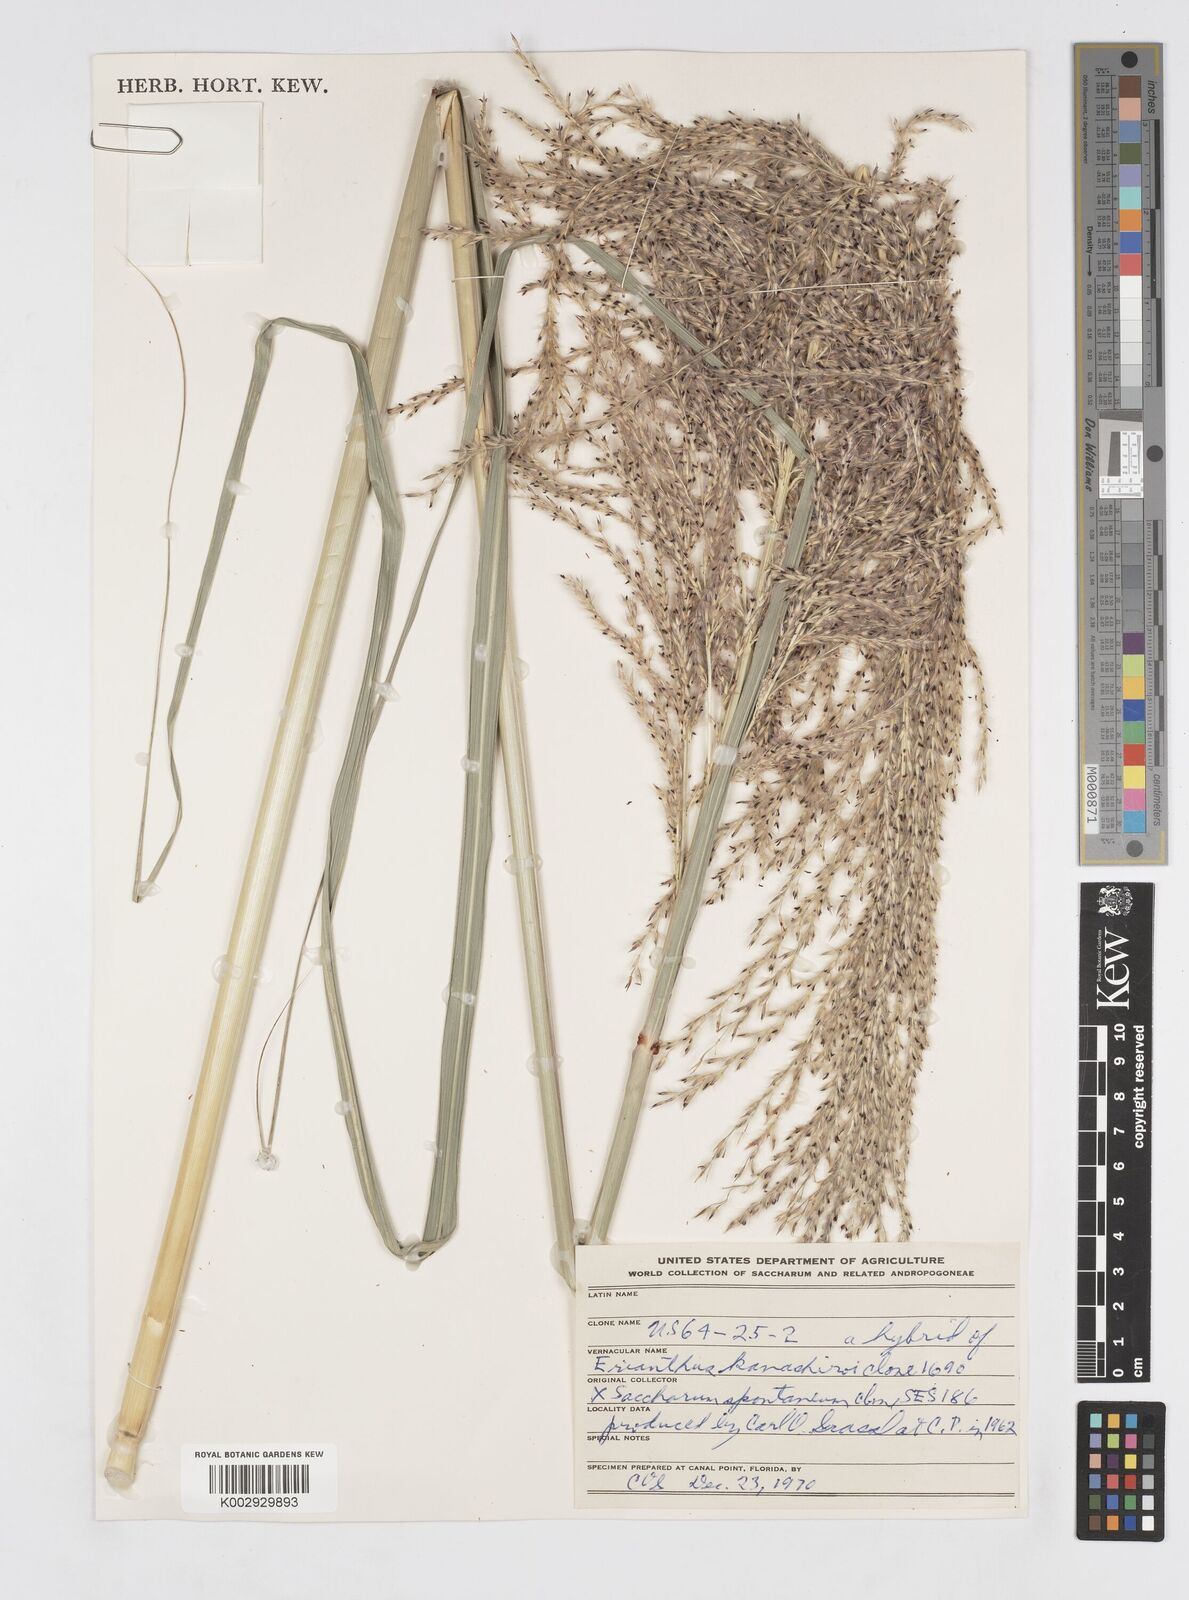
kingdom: Plantae
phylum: Tracheophyta
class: Liliopsida
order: Poales
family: Poaceae
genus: Saccharum
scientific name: Saccharum
